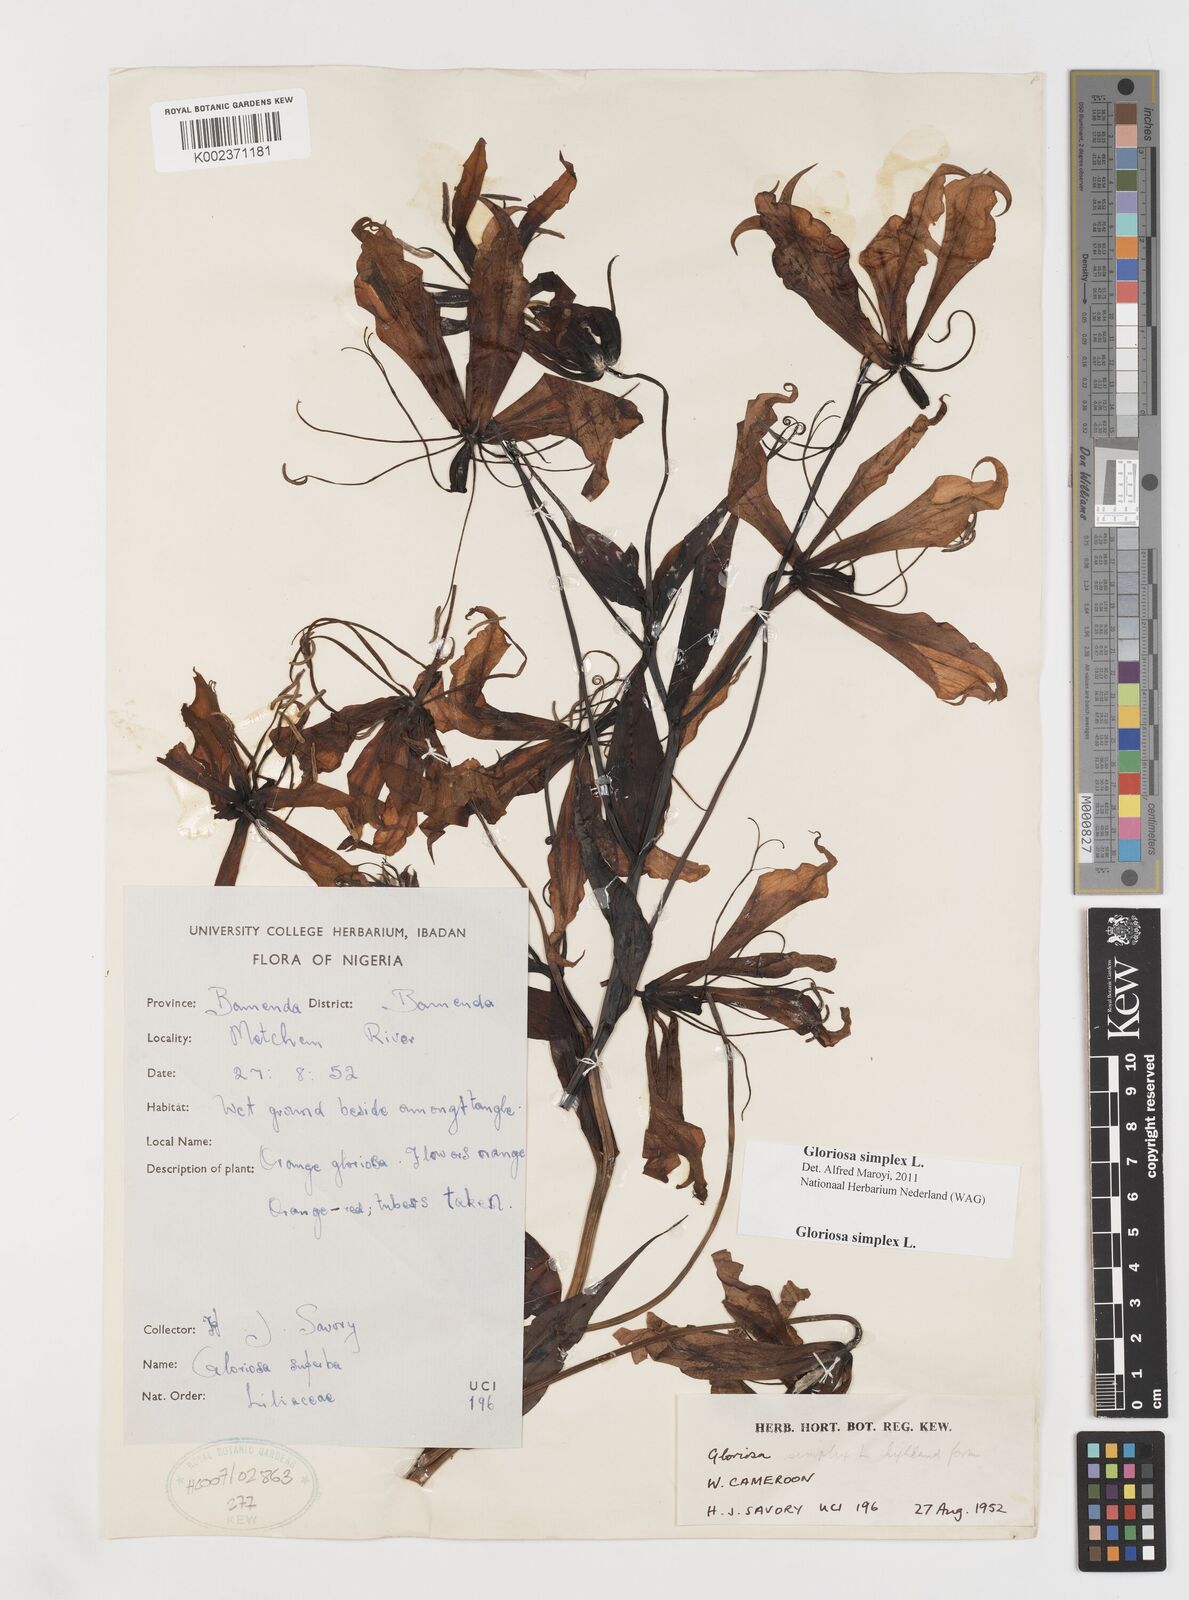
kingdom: Plantae
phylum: Tracheophyta
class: Liliopsida
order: Liliales
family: Colchicaceae
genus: Gloriosa
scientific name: Gloriosa simplex
